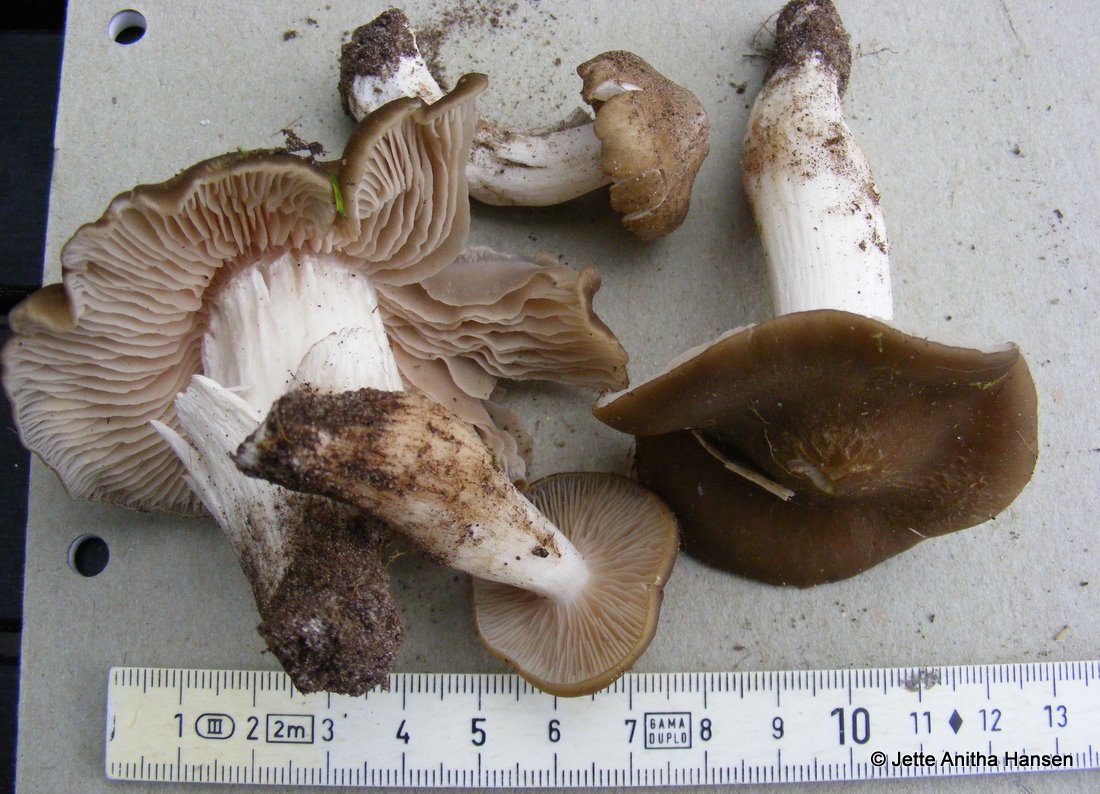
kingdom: Fungi
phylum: Basidiomycota
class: Agaricomycetes
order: Agaricales
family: Entolomataceae
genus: Entoloma
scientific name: Entoloma clypeatum
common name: flammet rødblad
